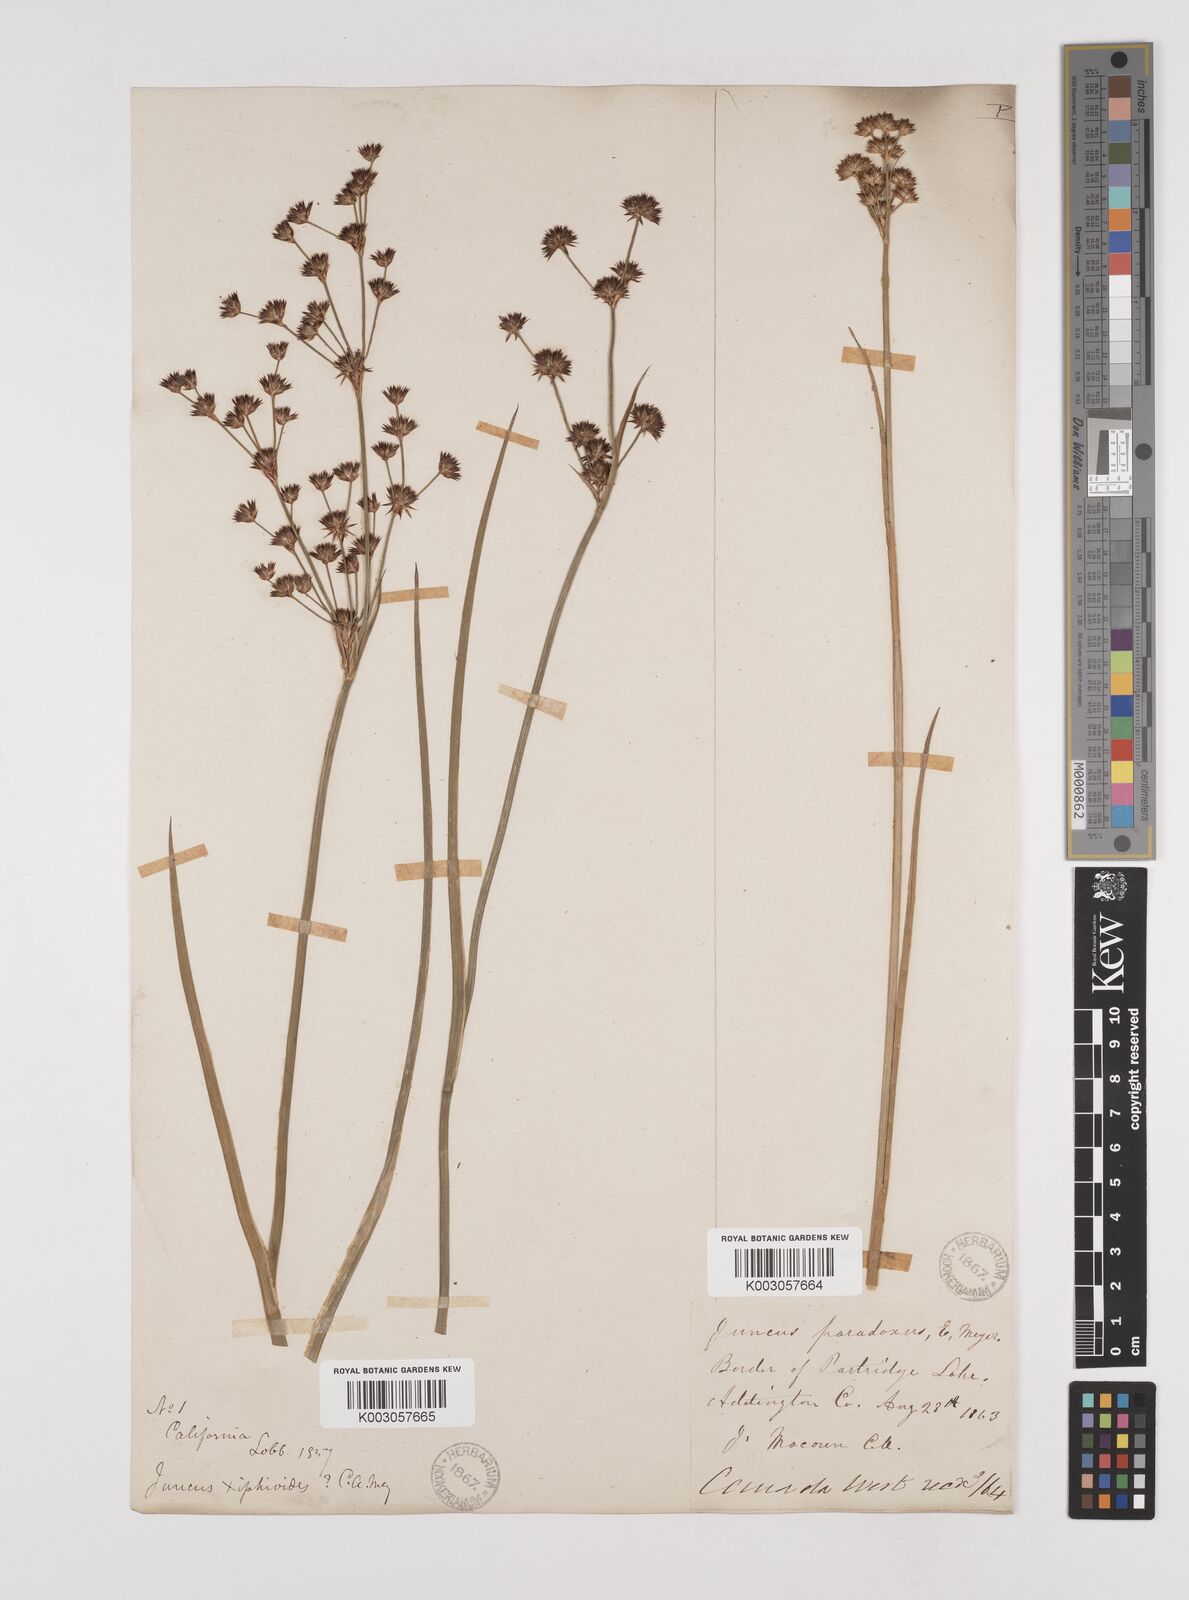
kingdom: Plantae
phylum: Tracheophyta
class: Liliopsida
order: Poales
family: Juncaceae
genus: Juncus
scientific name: Juncus dubius
